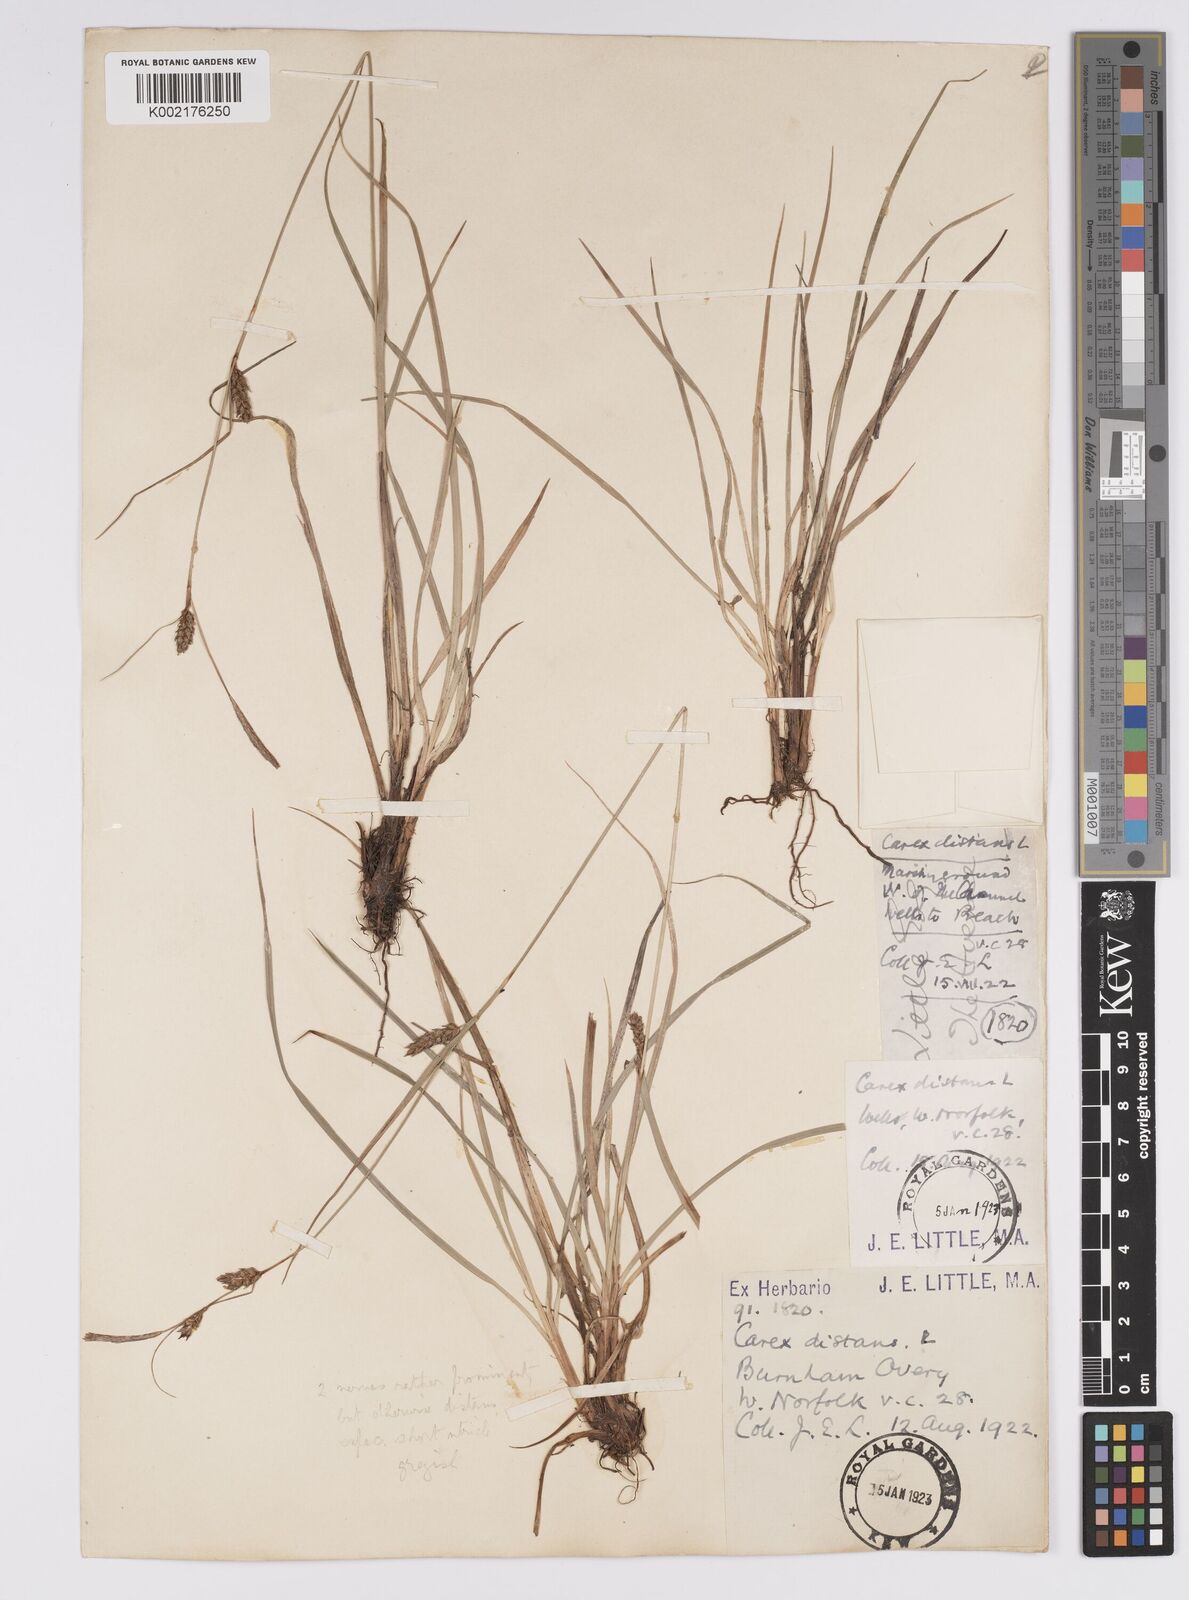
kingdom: Plantae
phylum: Tracheophyta
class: Liliopsida
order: Poales
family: Cyperaceae
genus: Carex
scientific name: Carex distans
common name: Distant sedge
